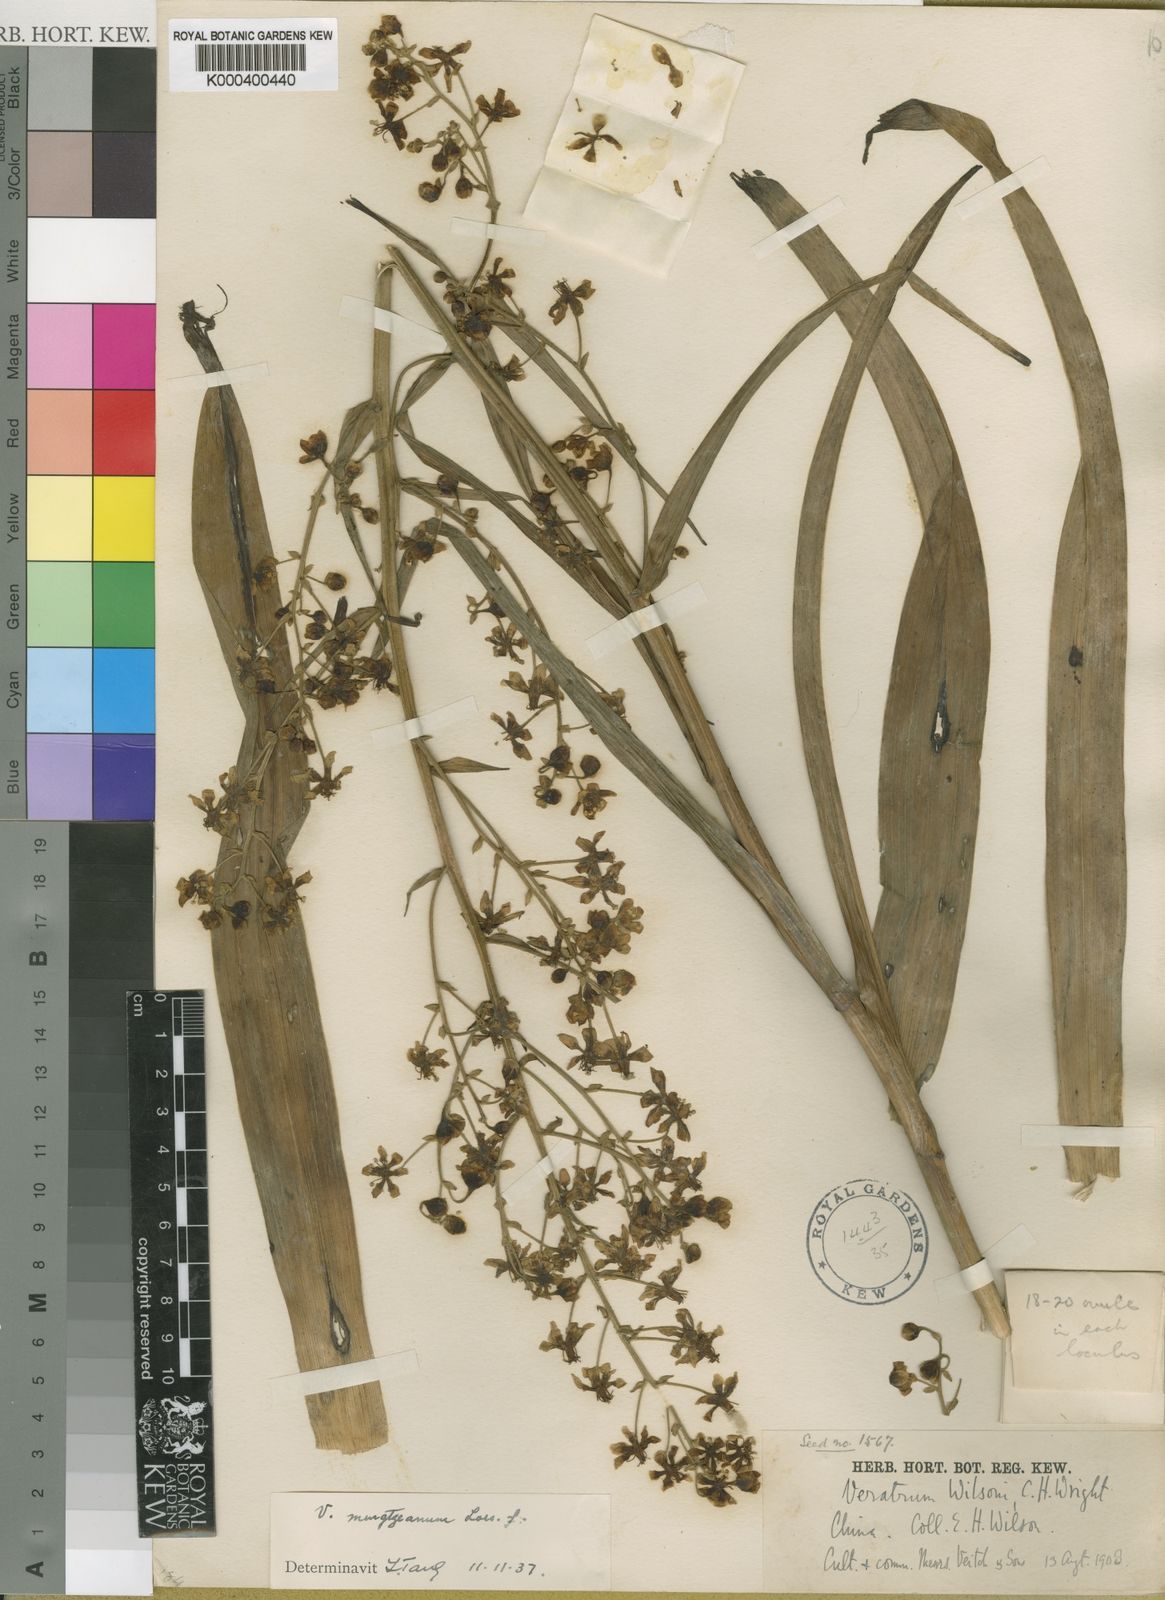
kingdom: Plantae
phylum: Tracheophyta
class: Liliopsida
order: Liliales
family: Melanthiaceae
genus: Veratrum
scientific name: Veratrum mengtzeanum
